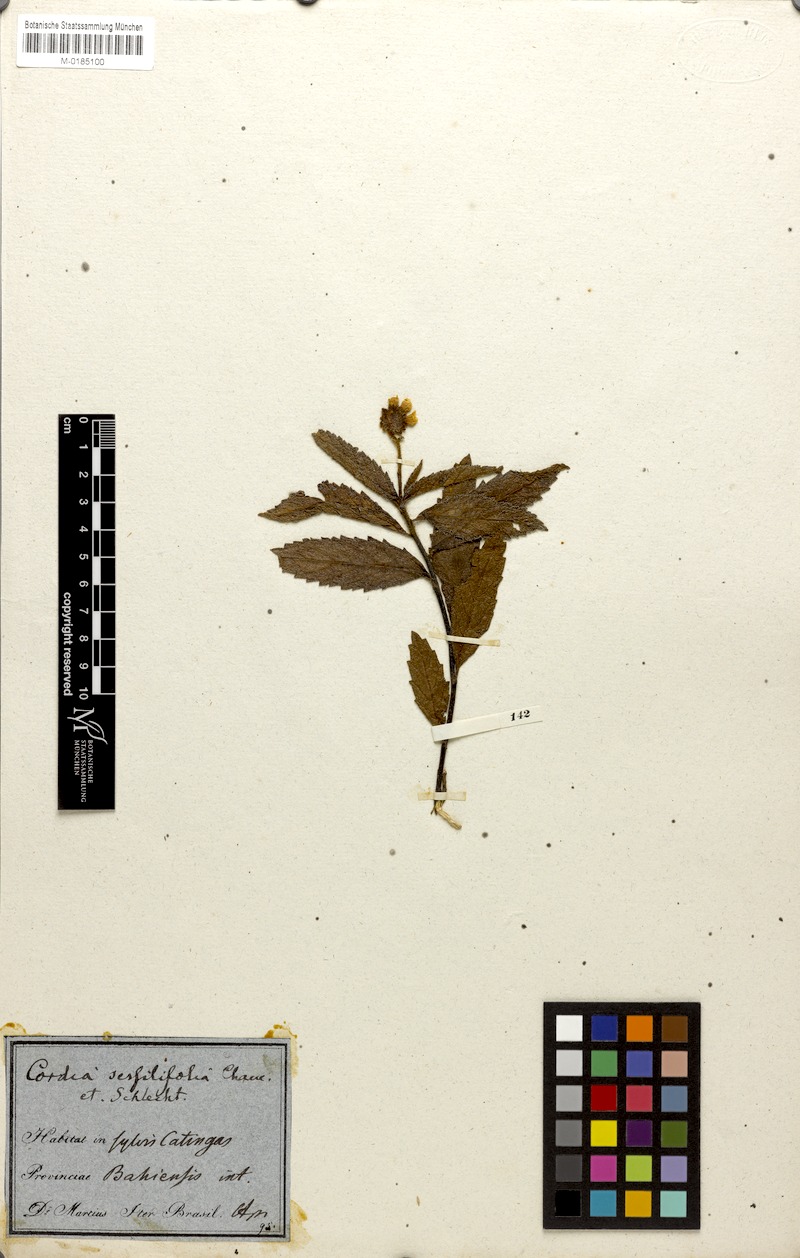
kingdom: Plantae
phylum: Tracheophyta
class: Magnoliopsida
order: Boraginales
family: Cordiaceae
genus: Varronia
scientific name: Varronia sessilifolia
